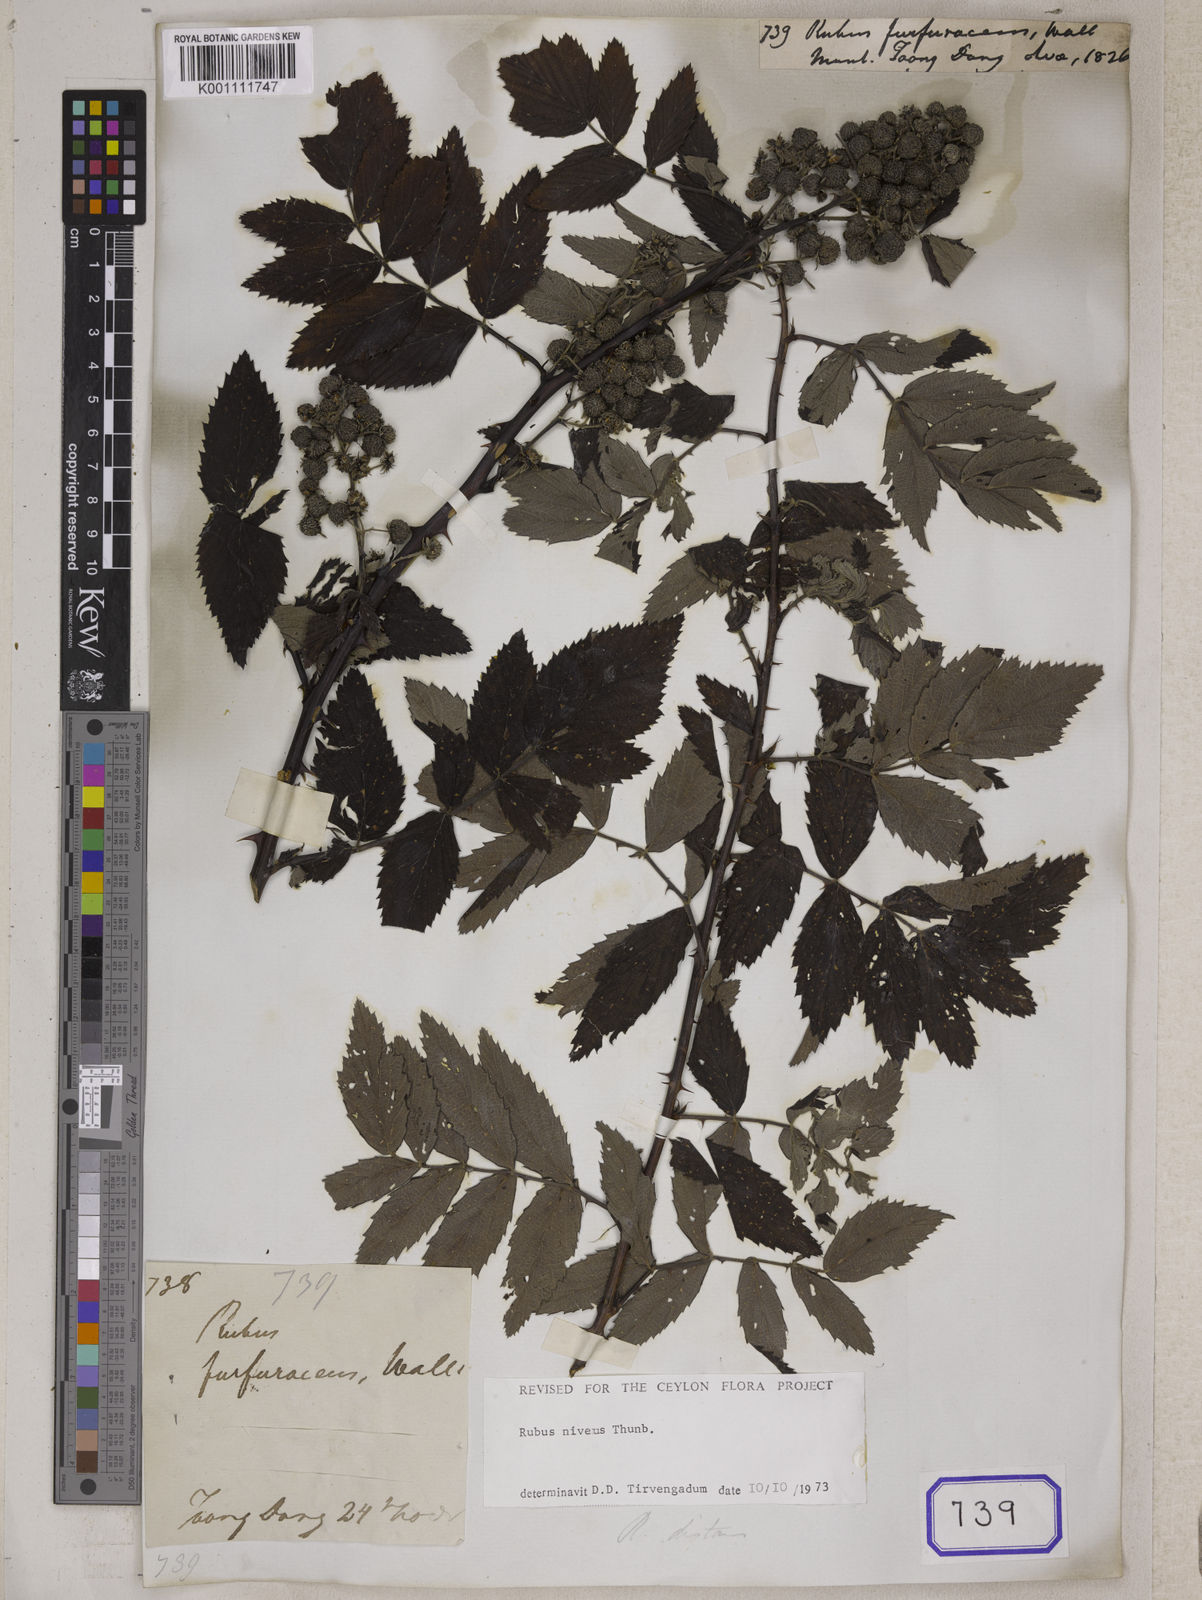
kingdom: Plantae
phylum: Tracheophyta
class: Magnoliopsida
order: Rosales
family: Rosaceae
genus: Rubus
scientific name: Rubus niveus
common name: Snowpeaks raspberry
